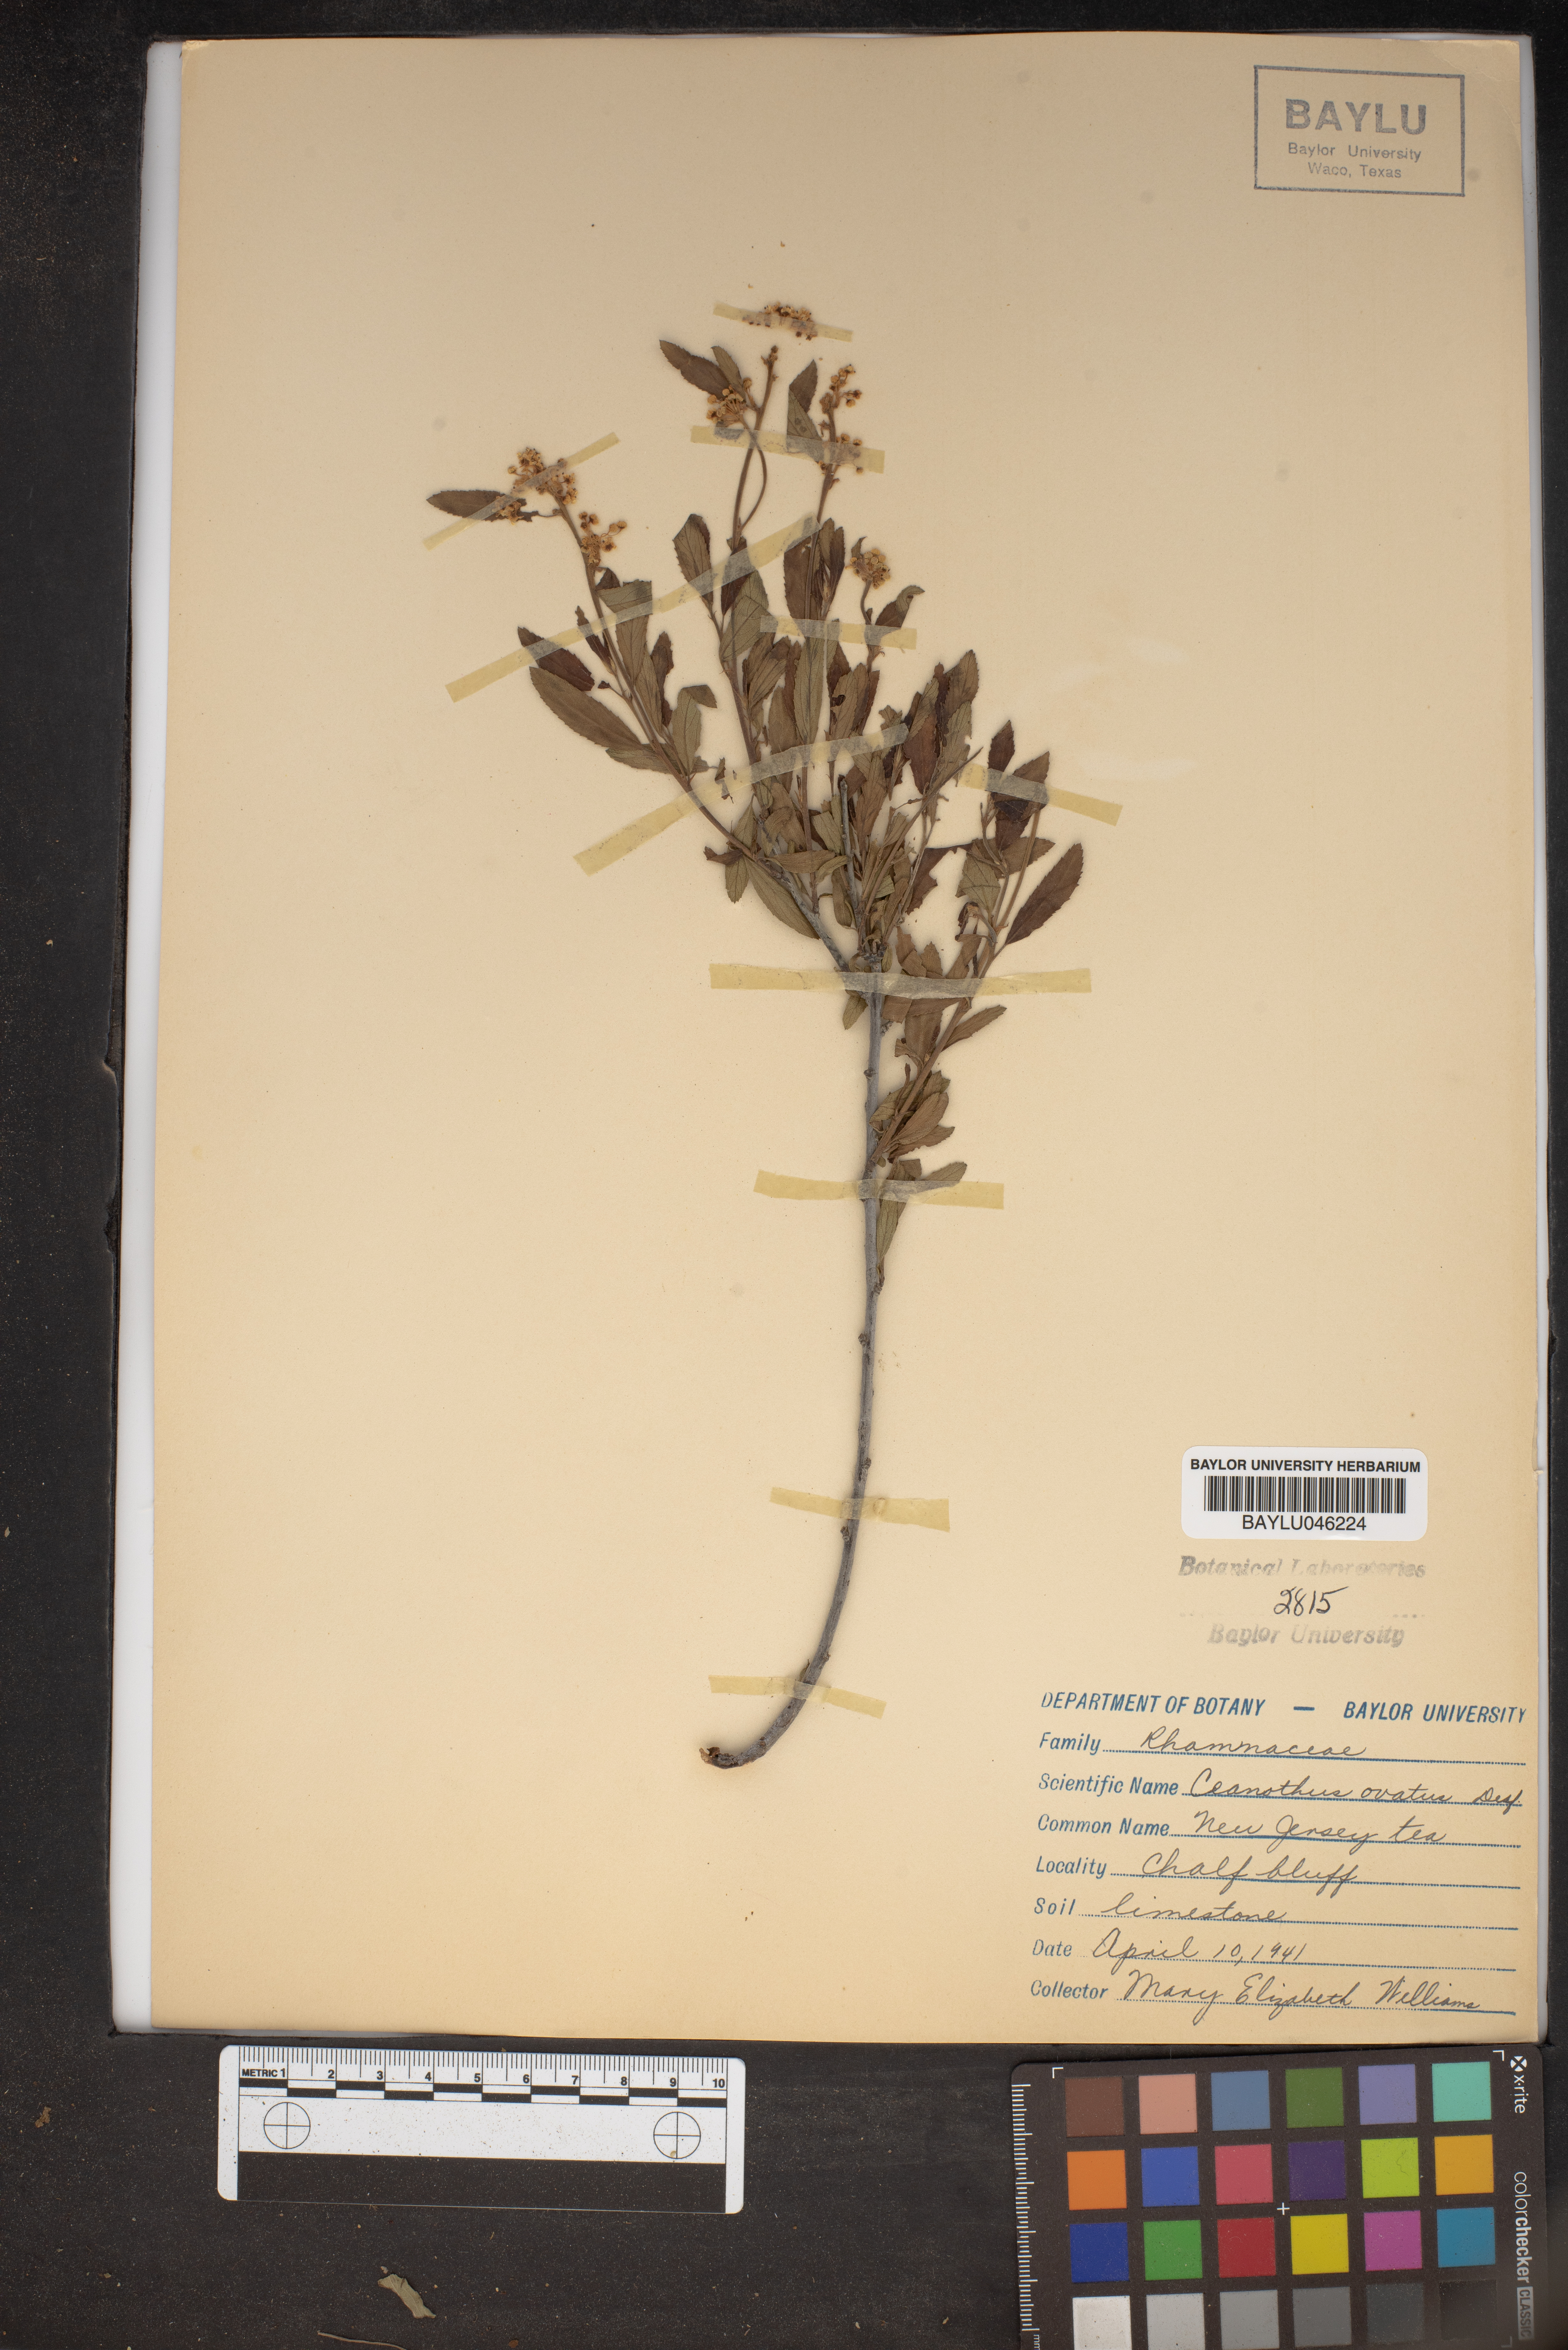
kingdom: Plantae
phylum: Tracheophyta
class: Magnoliopsida
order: Rosales
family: Rhamnaceae
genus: Ceanothus
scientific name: Ceanothus herbaceus
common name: Inland ceanothus
